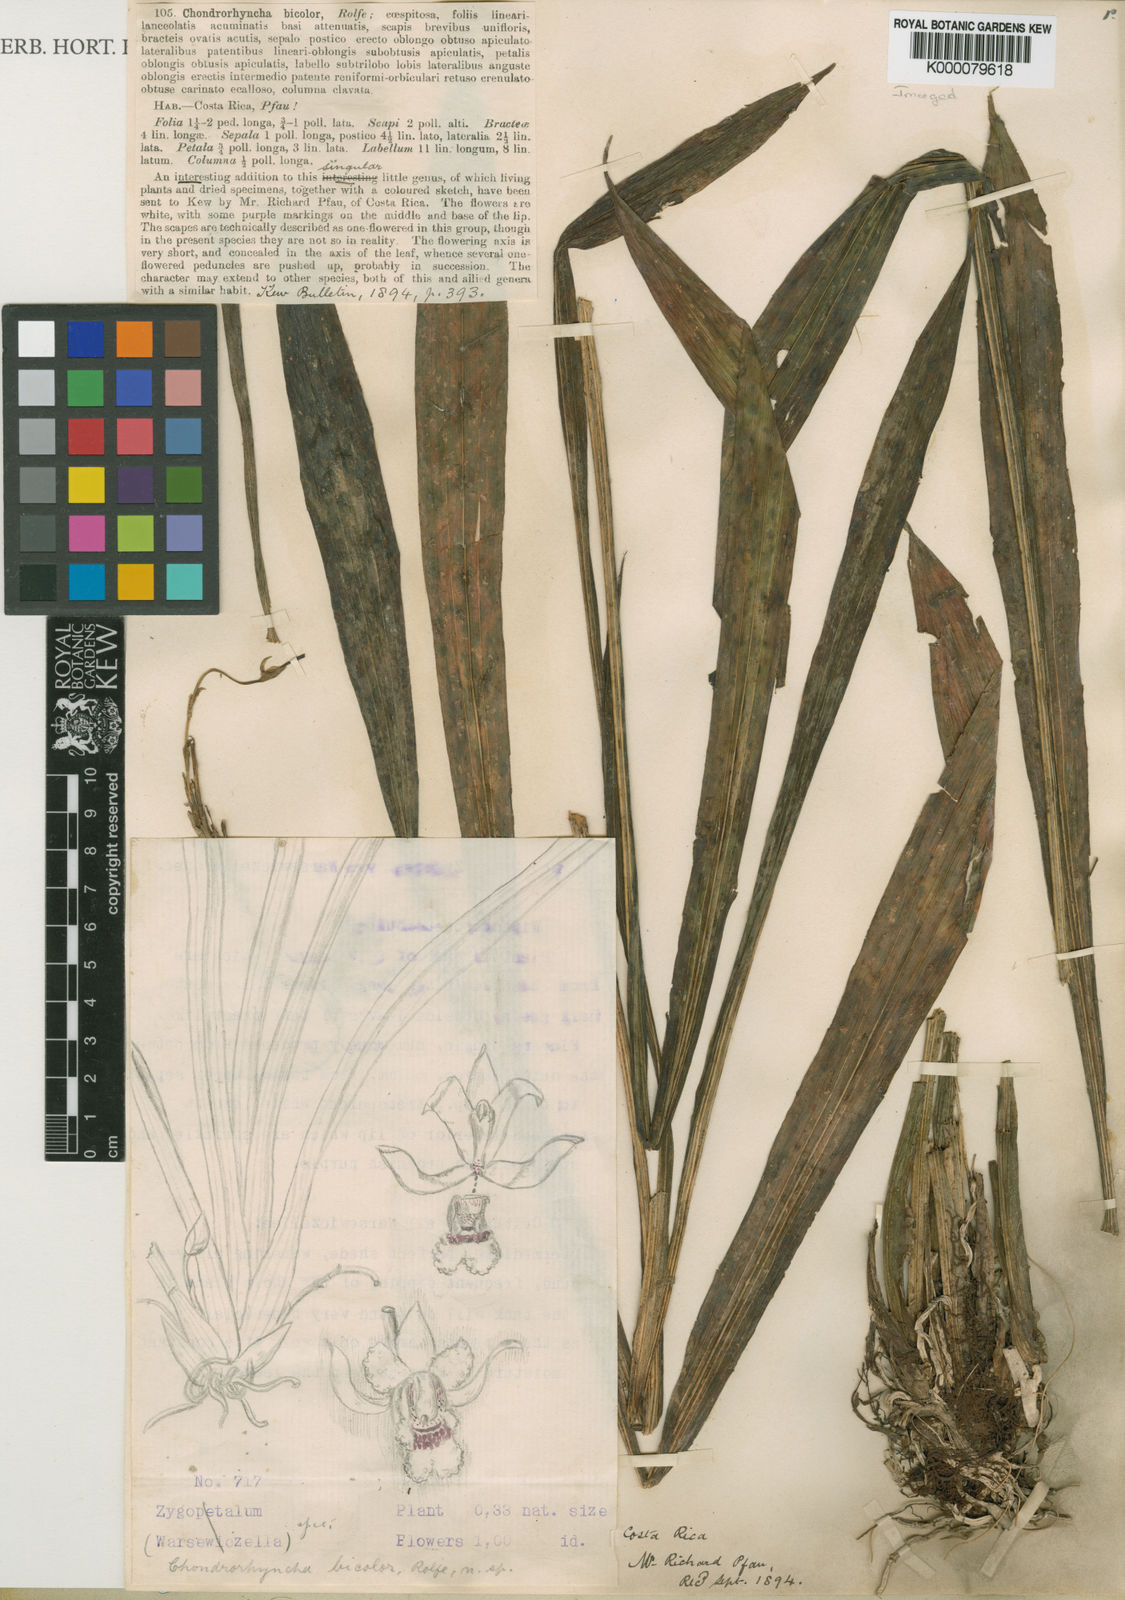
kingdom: Plantae
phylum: Tracheophyta
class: Liliopsida
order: Asparagales
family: Orchidaceae
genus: Chondroscaphe
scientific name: Chondroscaphe bicolor
